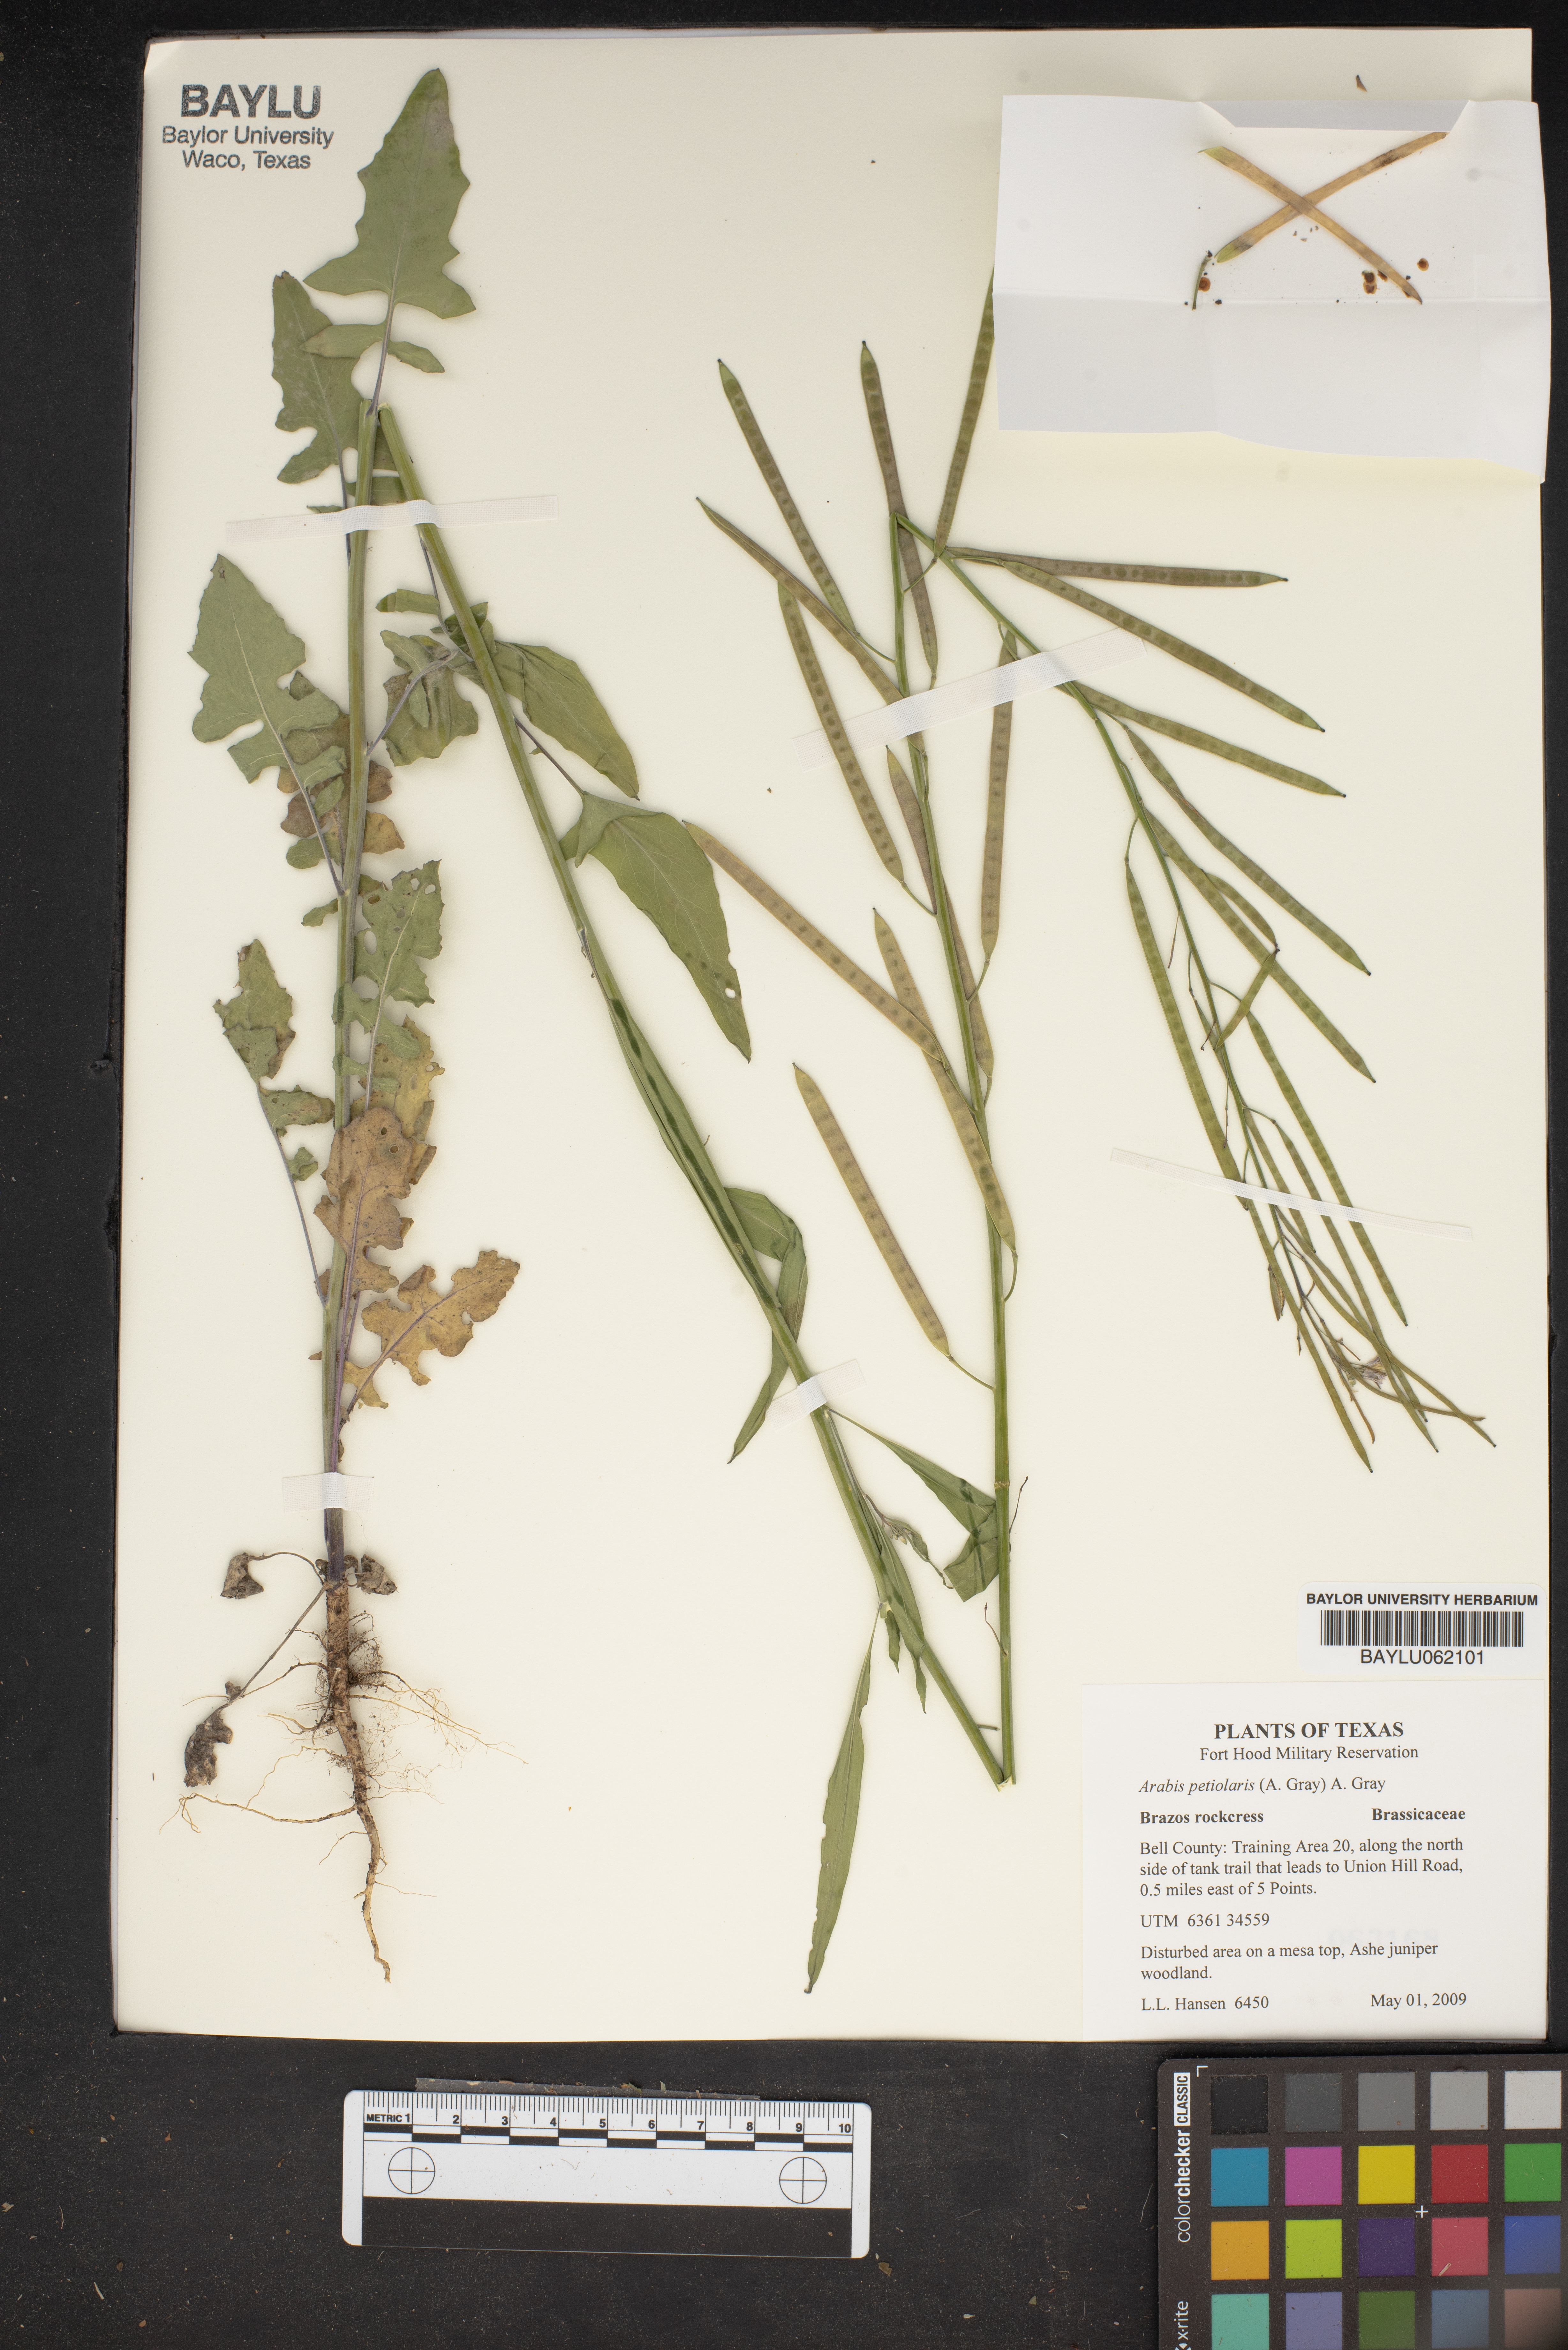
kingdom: Plantae
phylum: Tracheophyta
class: Magnoliopsida
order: Brassicales
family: Brassicaceae
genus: Streptanthus
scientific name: Streptanthus petiolaris
